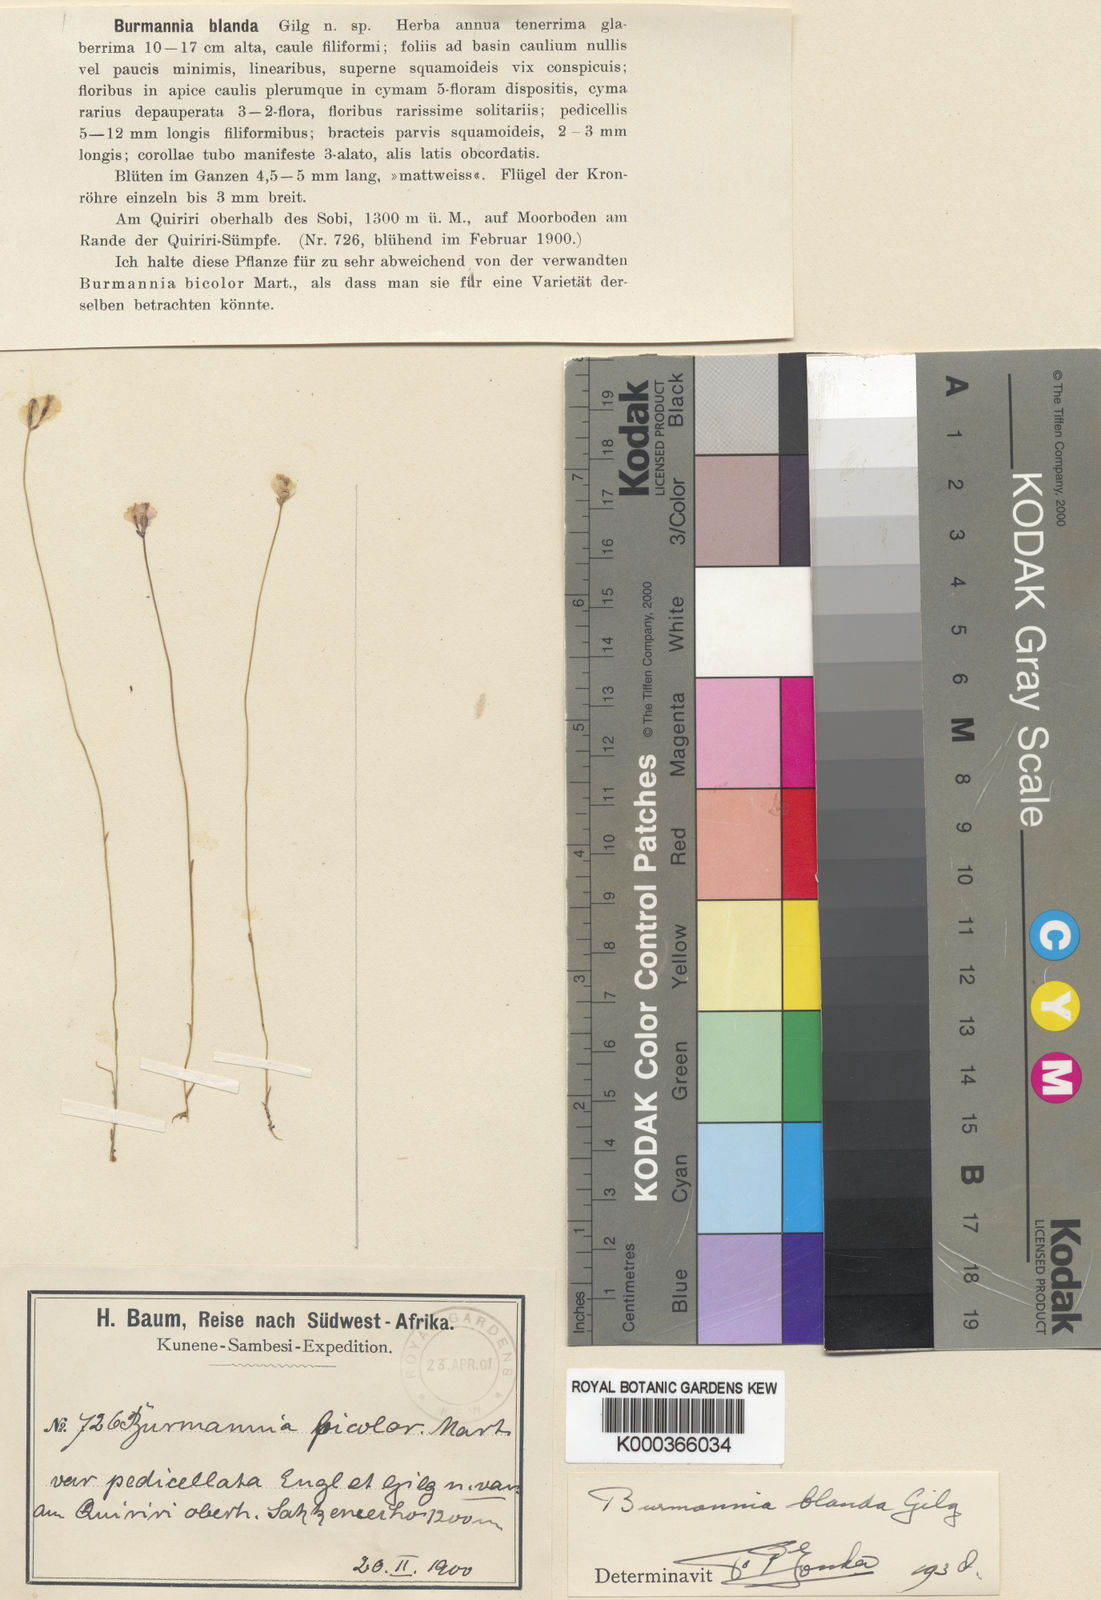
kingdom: Plantae
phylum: Tracheophyta
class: Liliopsida
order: Dioscoreales
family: Burmanniaceae
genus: Burmannia
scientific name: Burmannia madagascariensis
